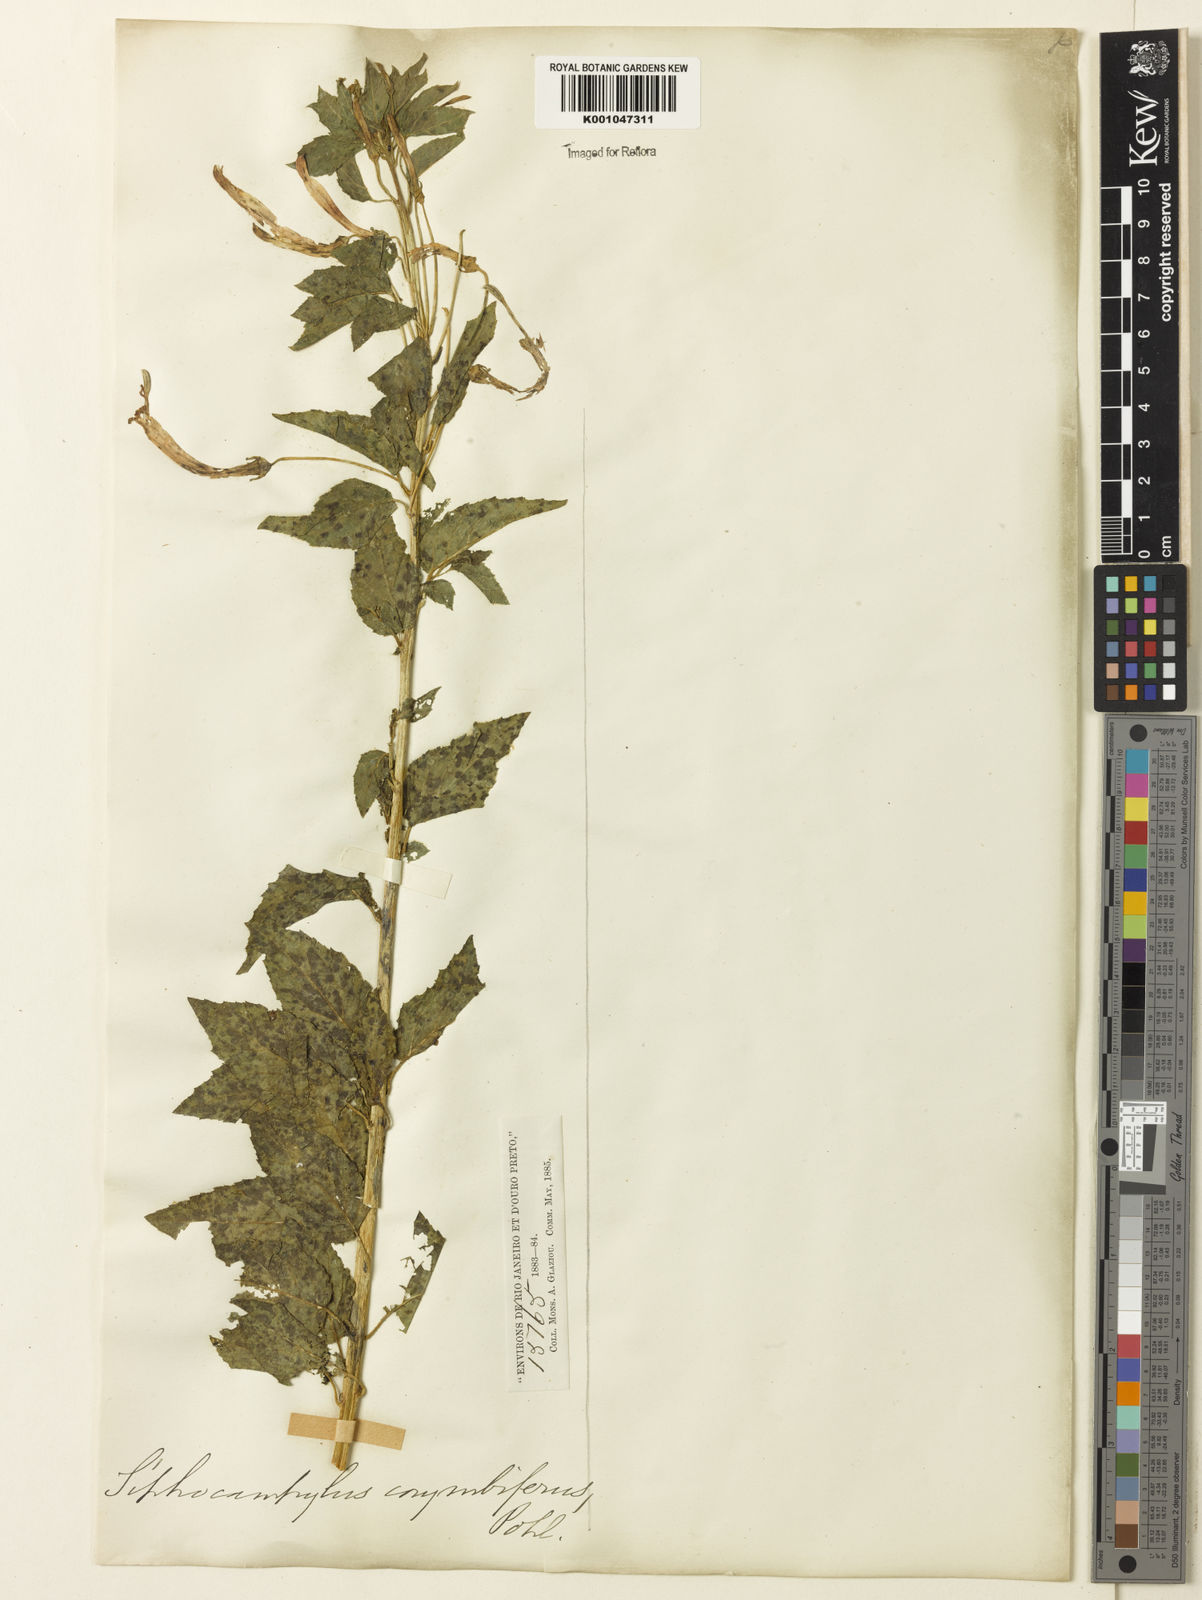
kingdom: Plantae
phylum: Tracheophyta
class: Magnoliopsida
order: Asterales
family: Campanulaceae
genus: Siphocampylus
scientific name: Siphocampylus corymbifer
